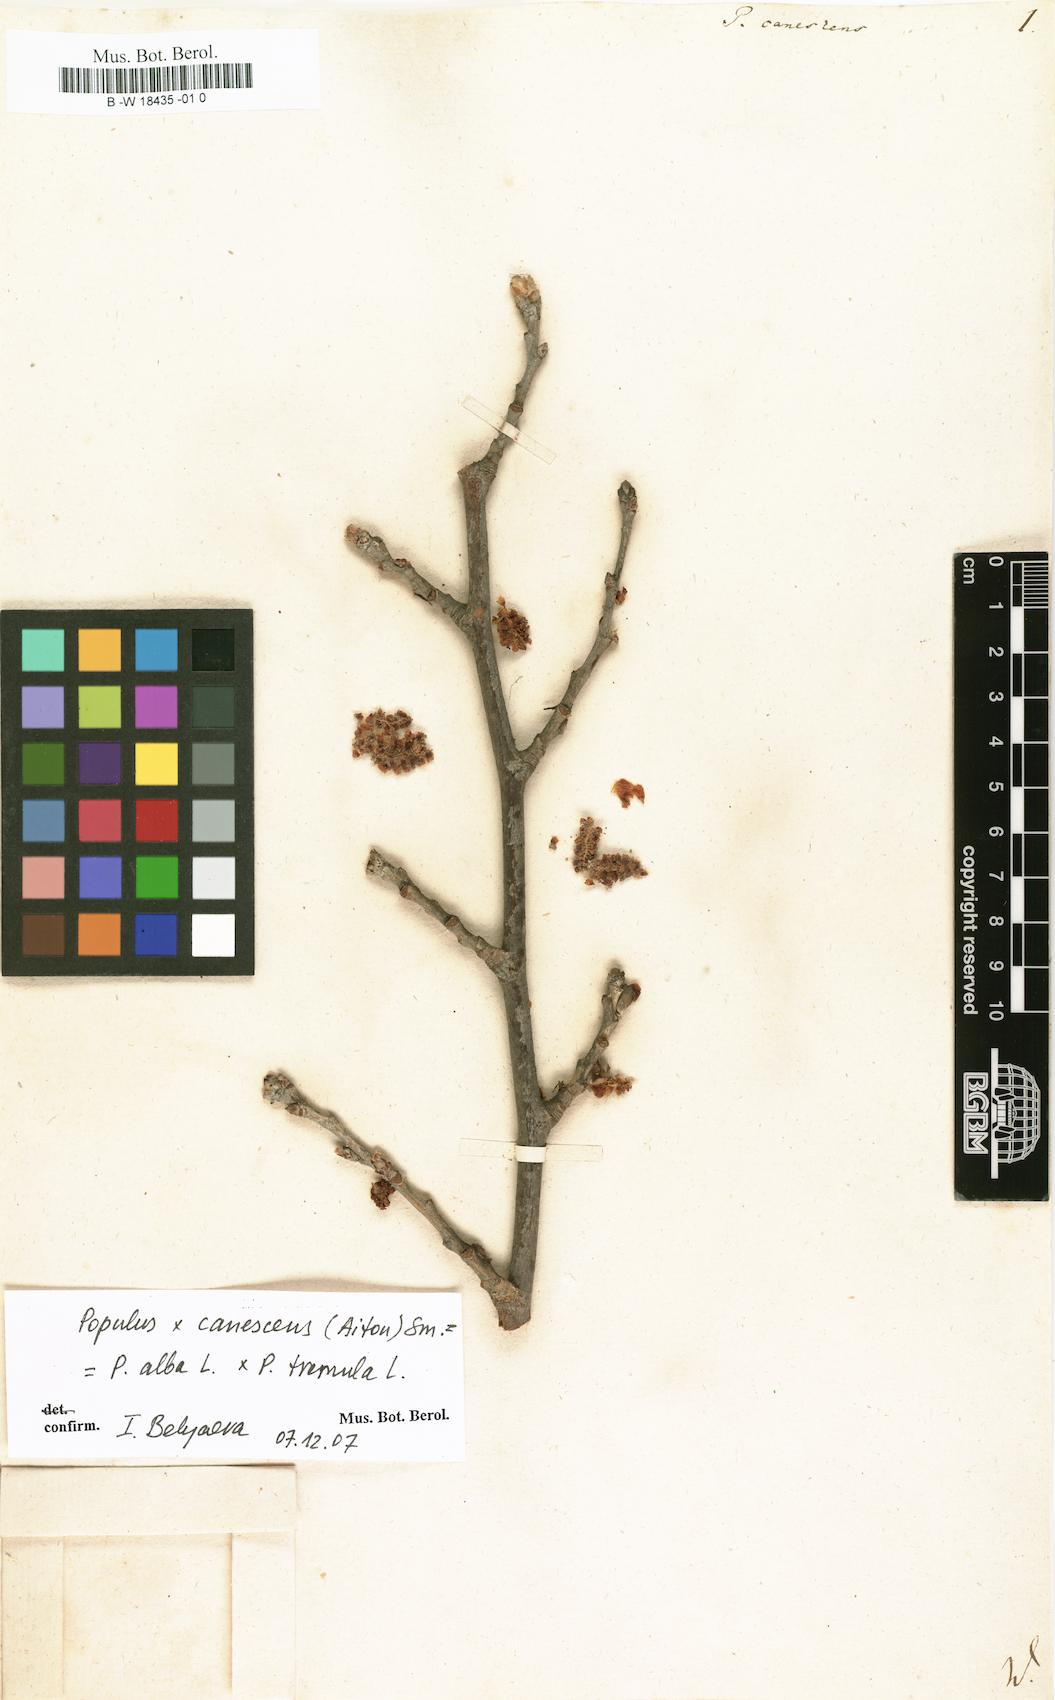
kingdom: Plantae
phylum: Tracheophyta
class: Magnoliopsida
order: Malpighiales
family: Salicaceae
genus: Populus
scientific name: Populus canescens
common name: Gray poplar
